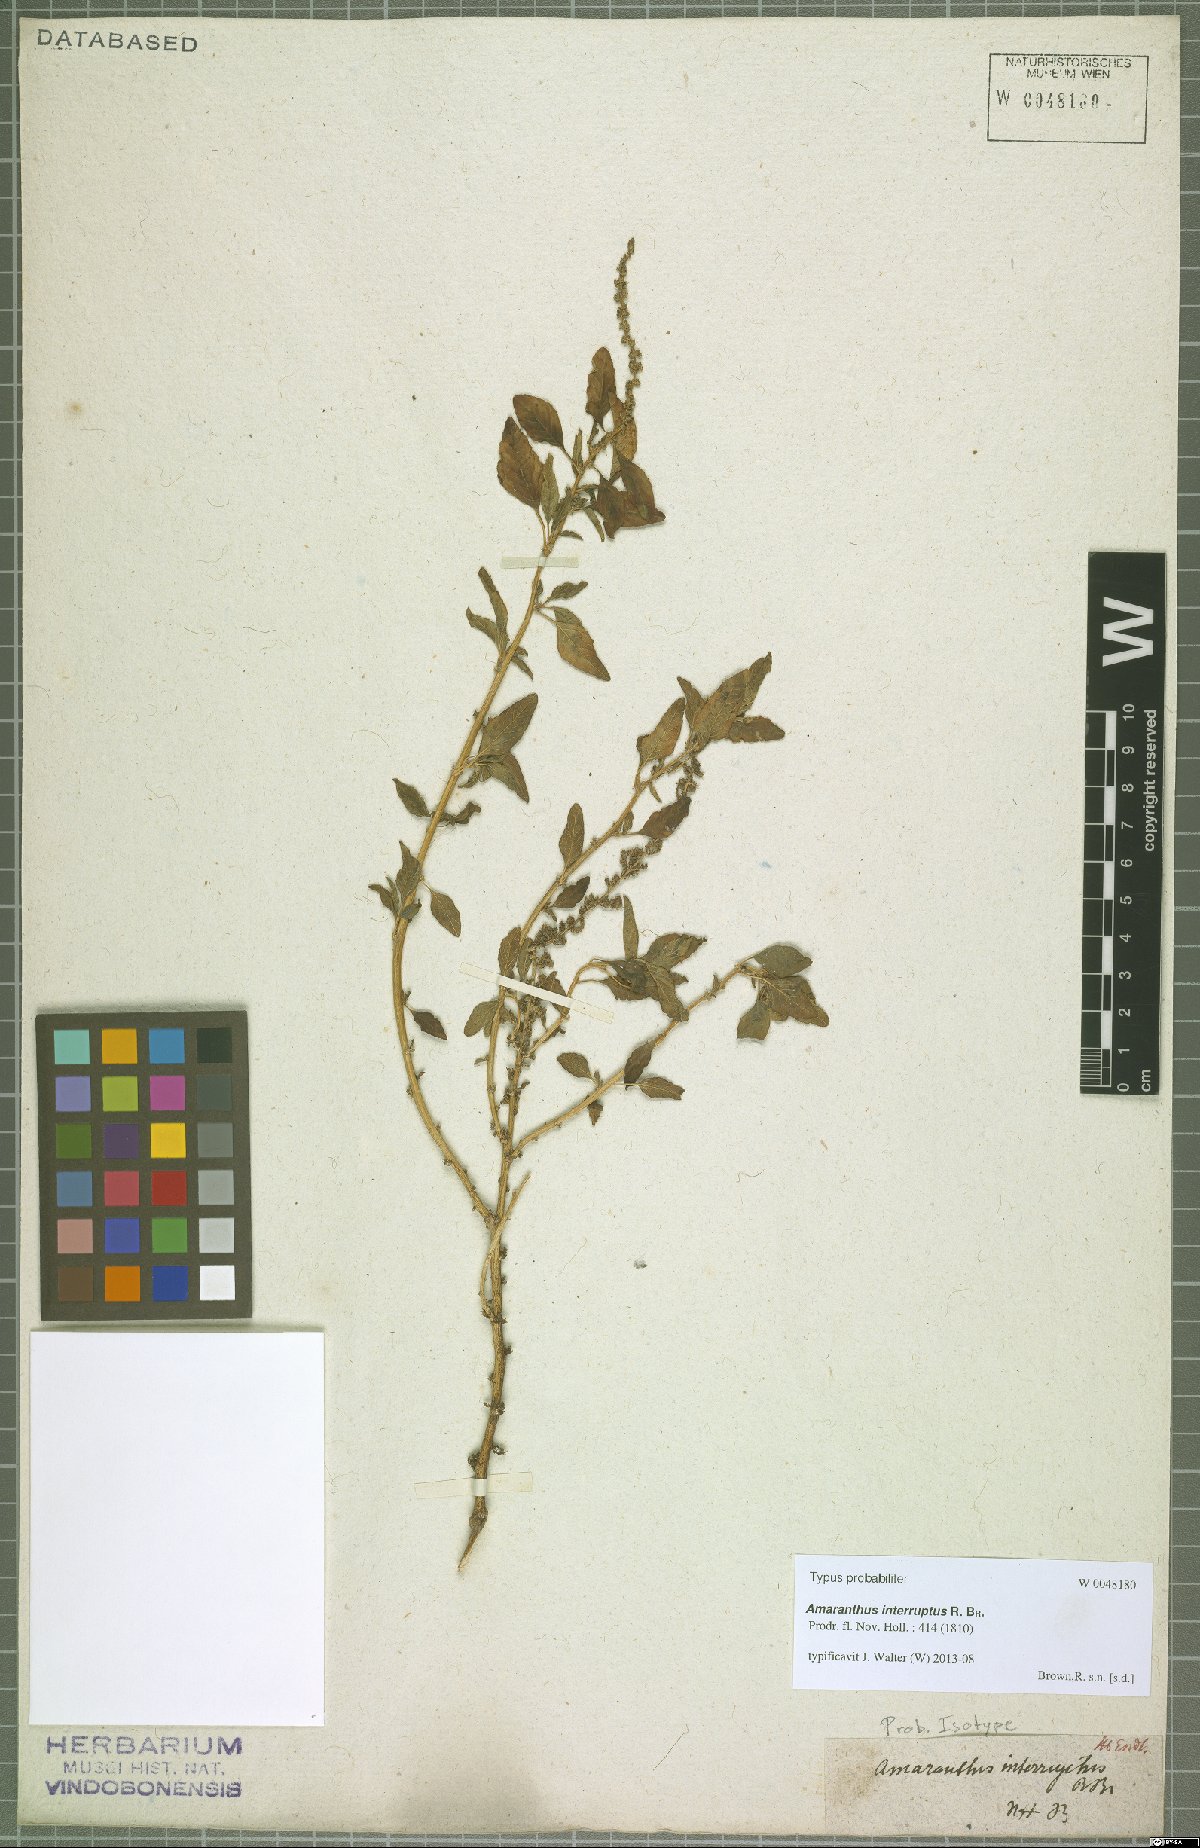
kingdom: Plantae
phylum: Tracheophyta
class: Magnoliopsida
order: Caryophyllales
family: Amaranthaceae
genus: Amaranthus
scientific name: Amaranthus interruptus
